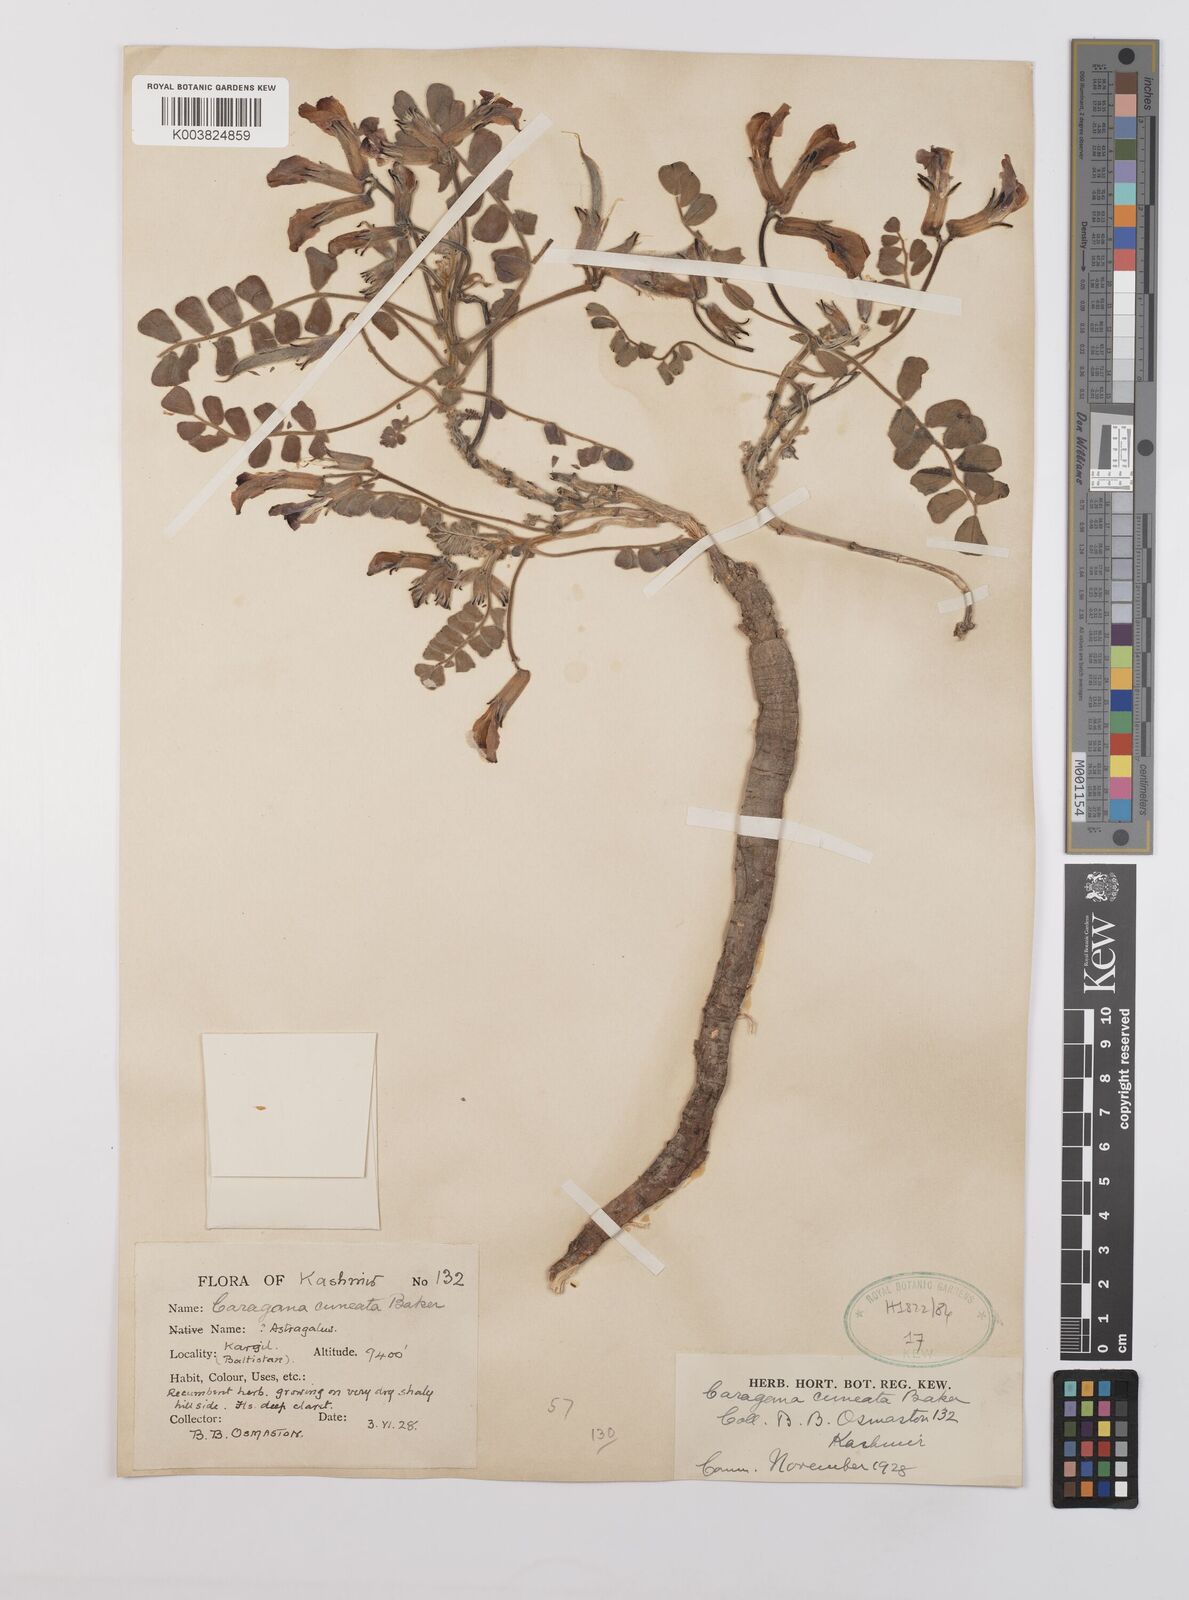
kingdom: Plantae
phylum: Tracheophyta
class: Magnoliopsida
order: Fabales
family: Fabaceae
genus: Chesneya
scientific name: Chesneya cuneata
